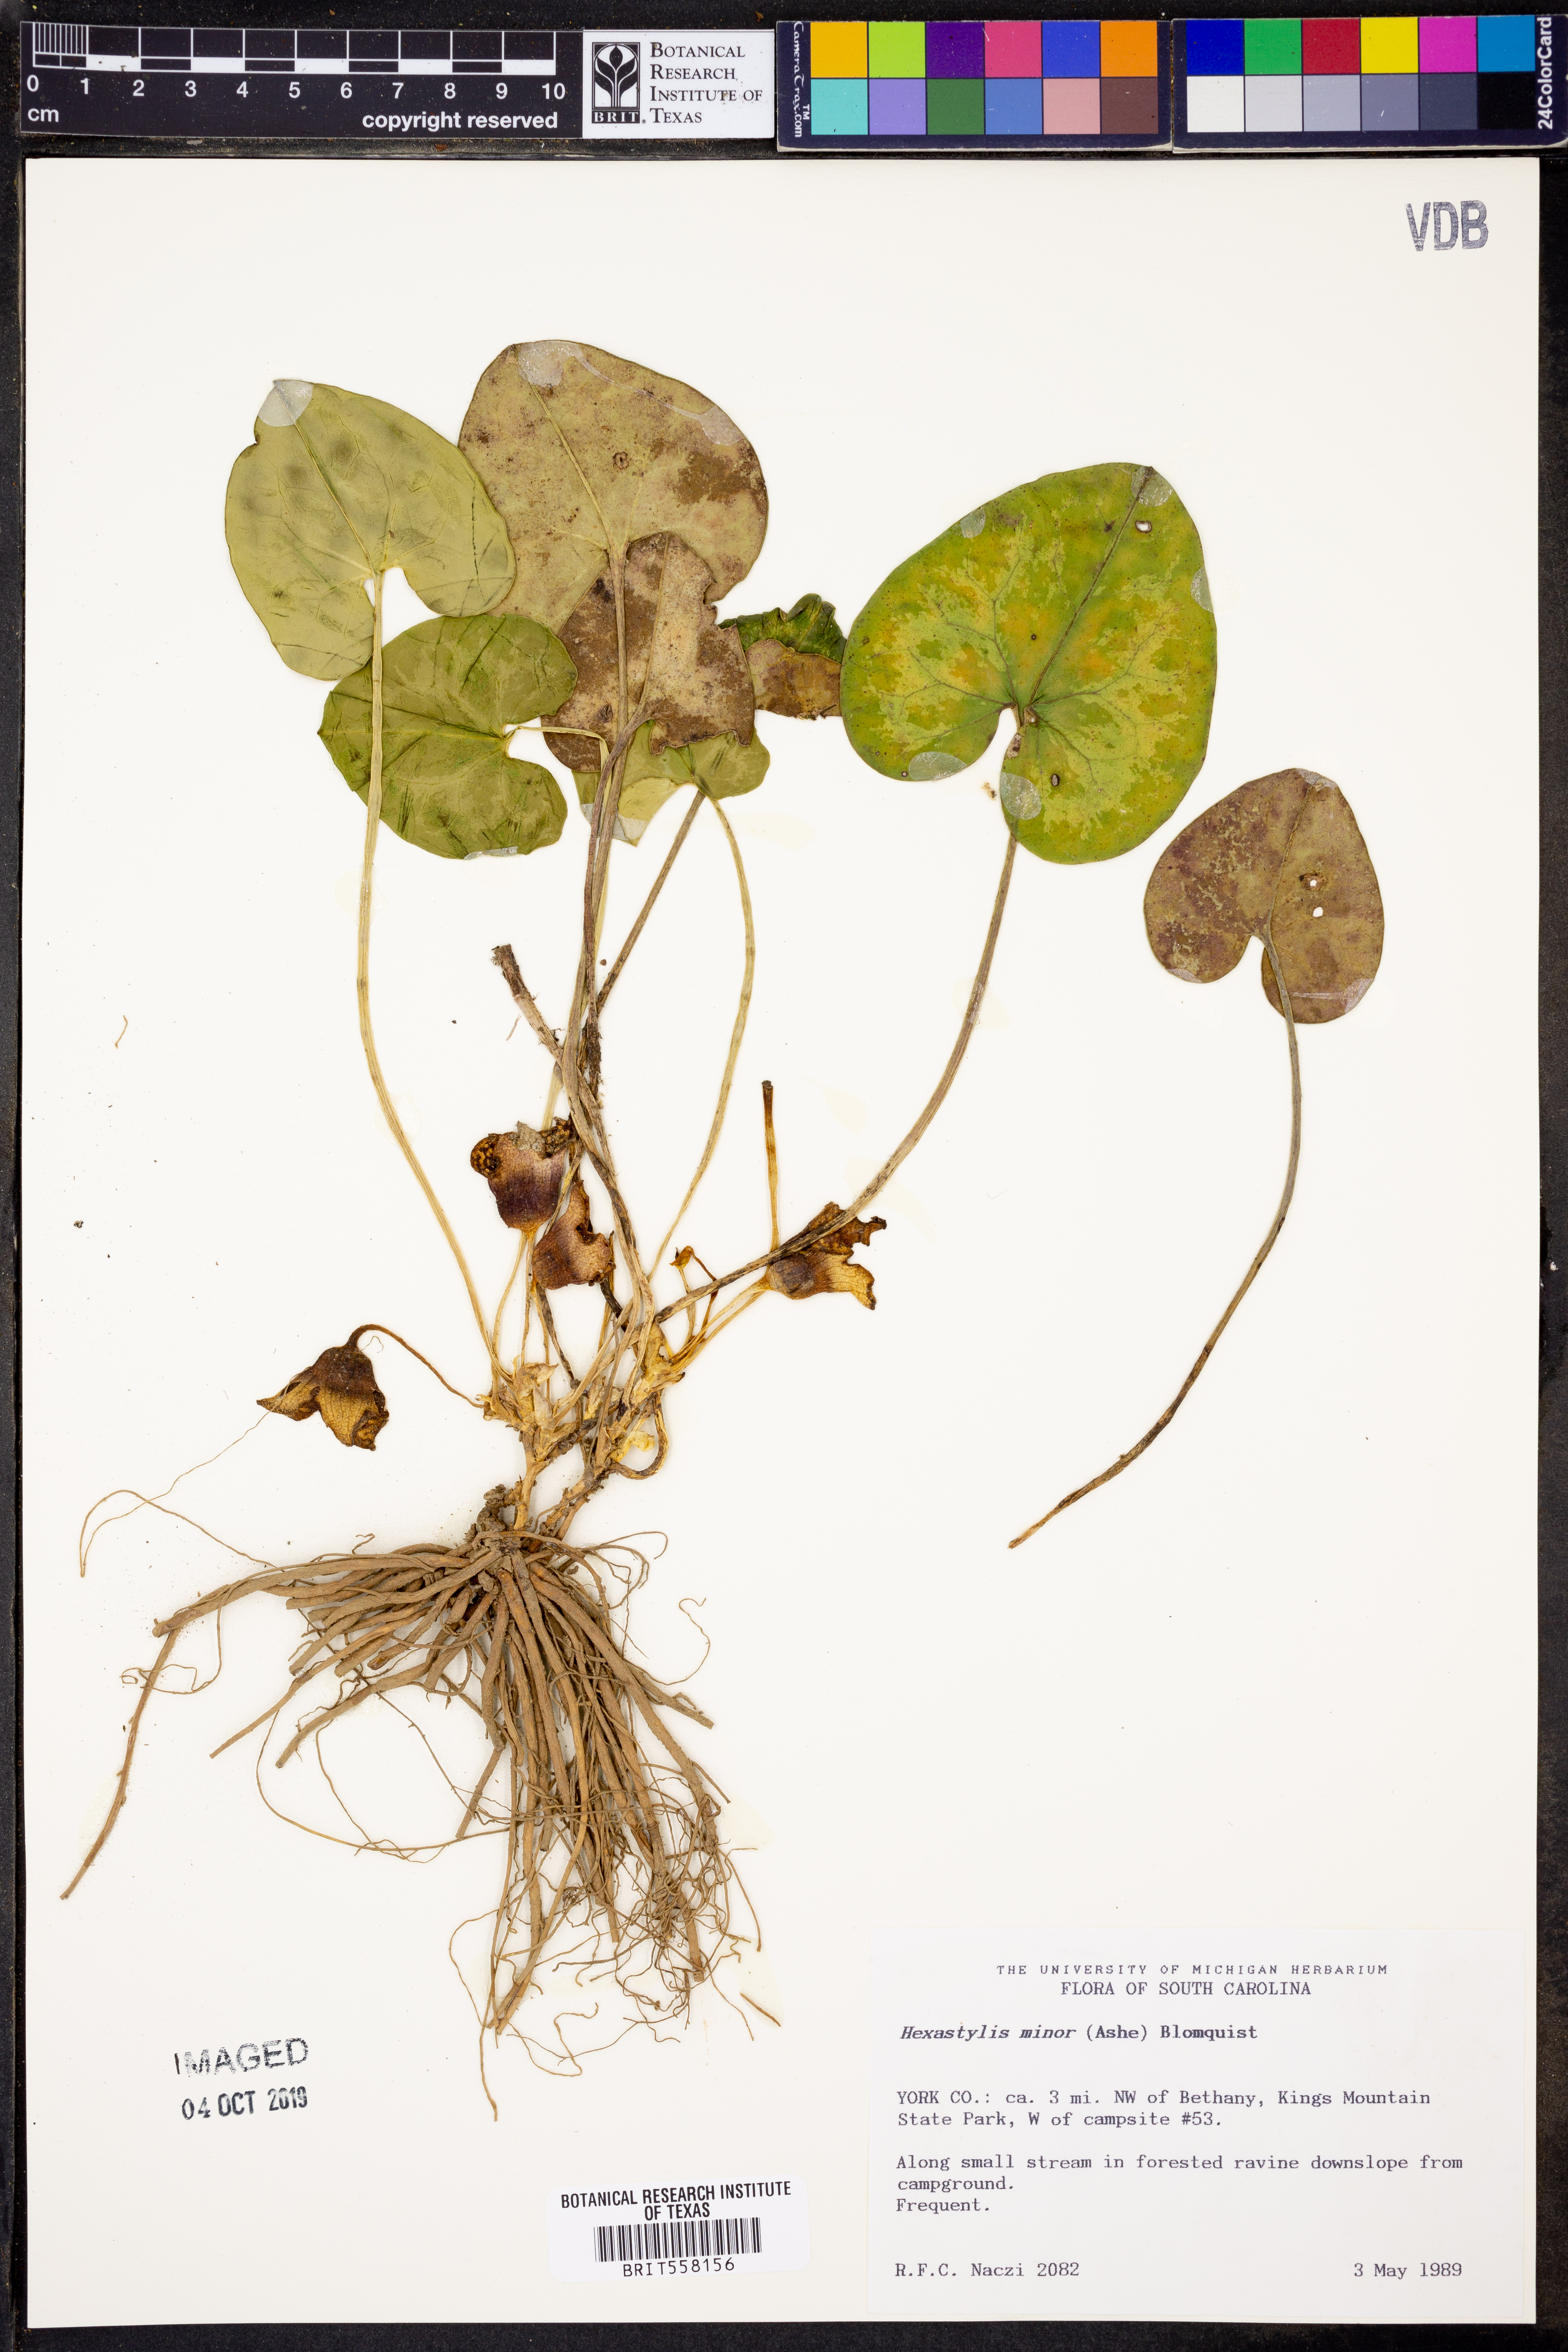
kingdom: Plantae
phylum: Tracheophyta
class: Magnoliopsida
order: Piperales
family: Aristolochiaceae
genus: Hexastylis
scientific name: Hexastylis minor
